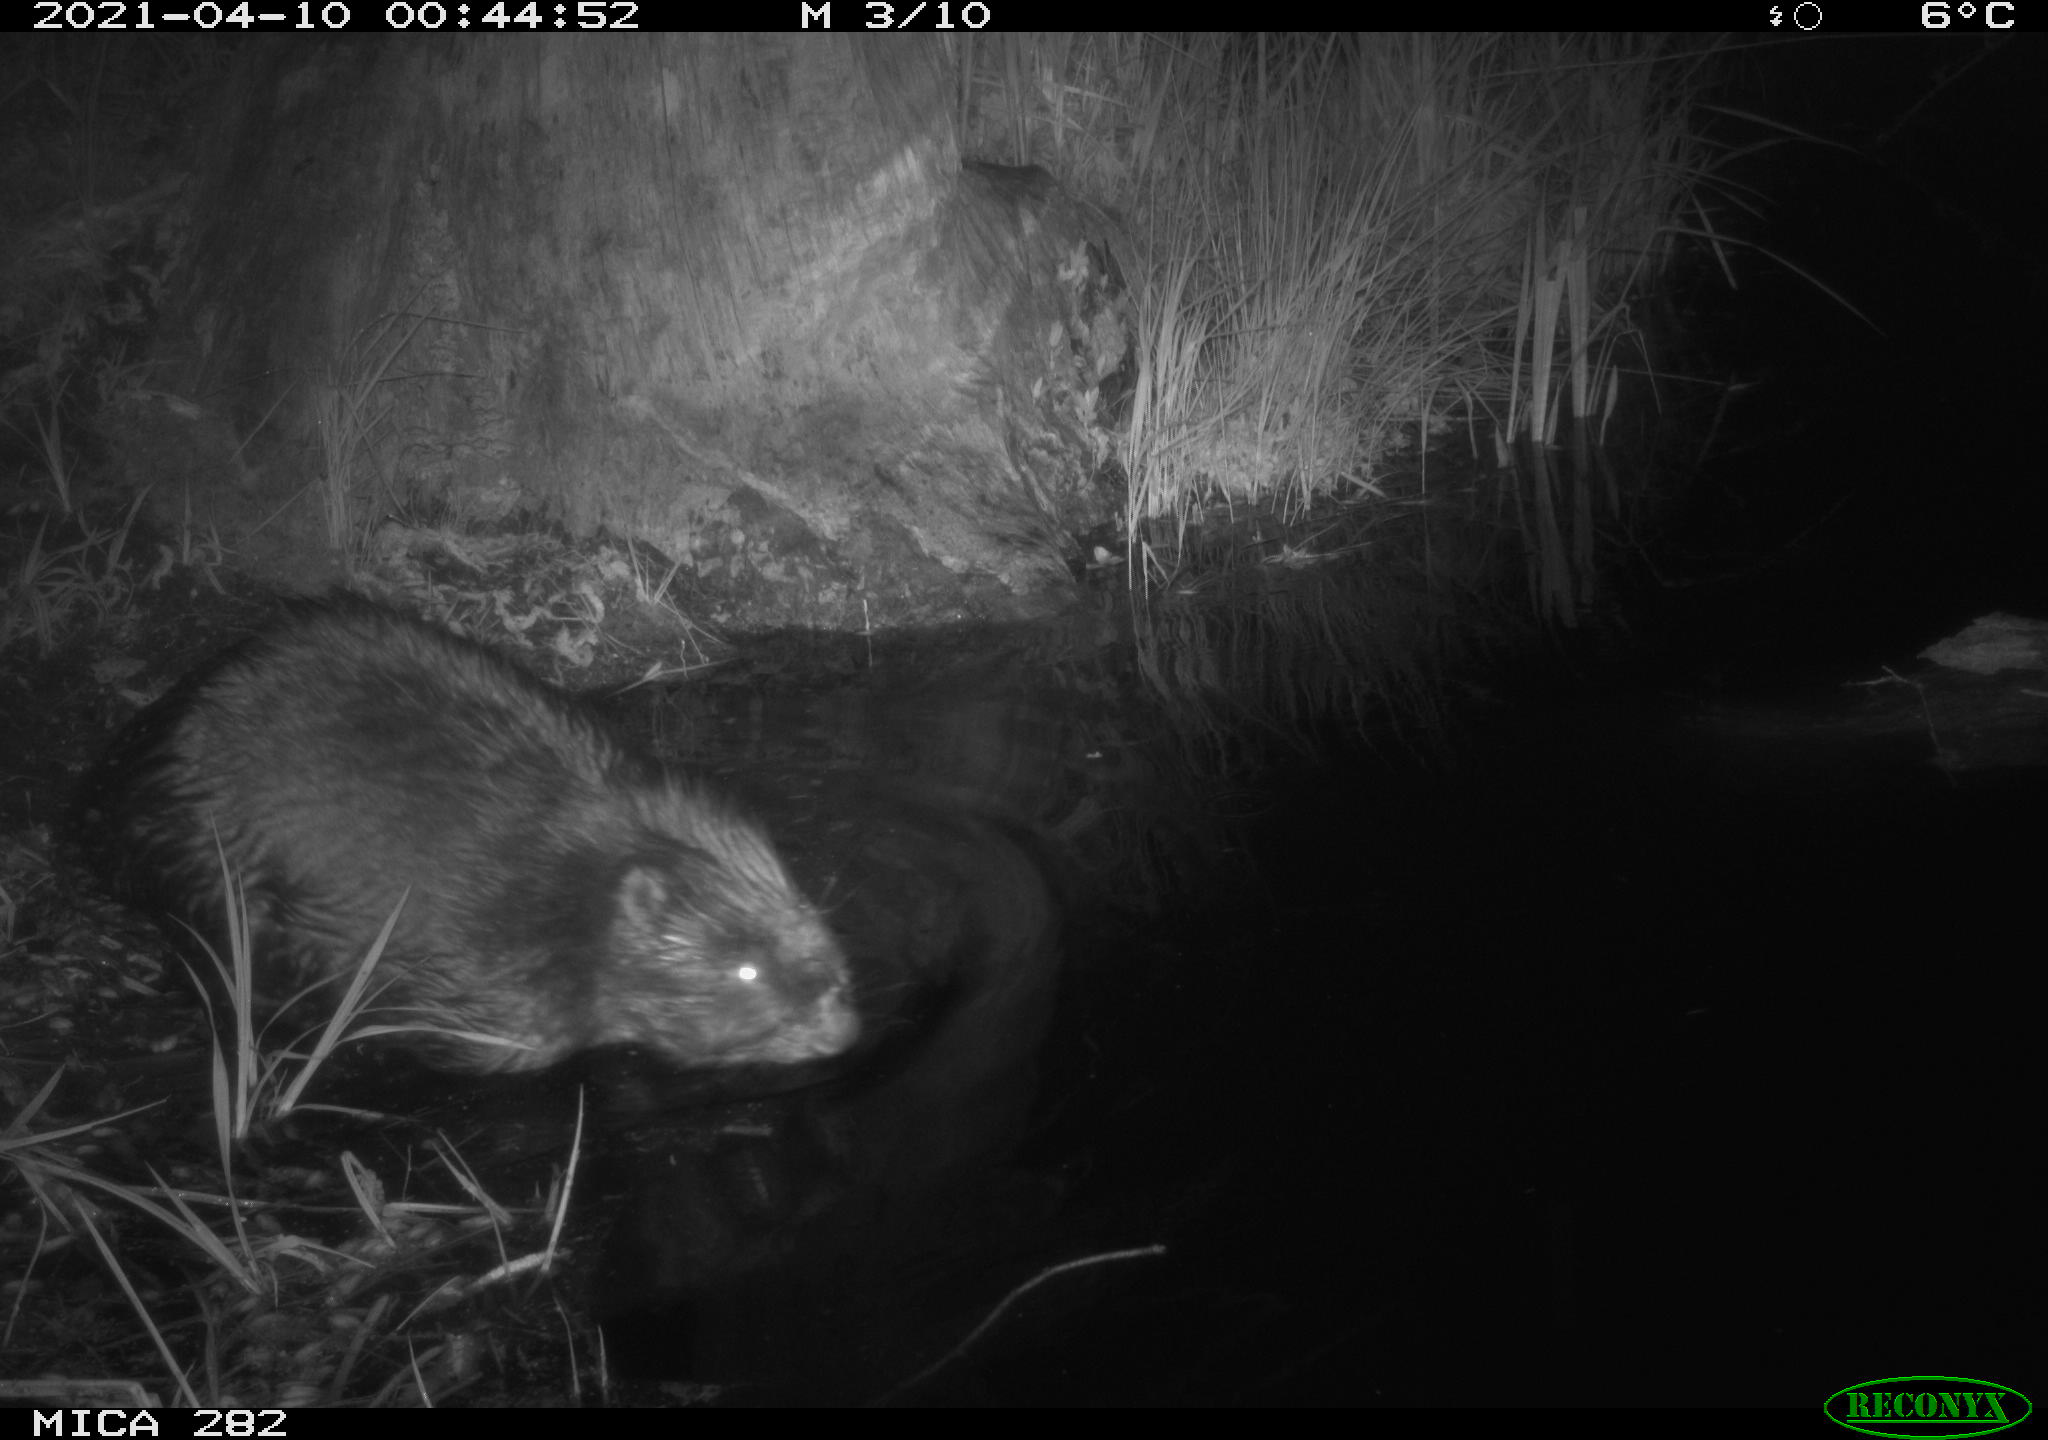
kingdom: Animalia
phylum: Chordata
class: Mammalia
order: Rodentia
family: Castoridae
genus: Castor
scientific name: Castor fiber
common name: Eurasian beaver
